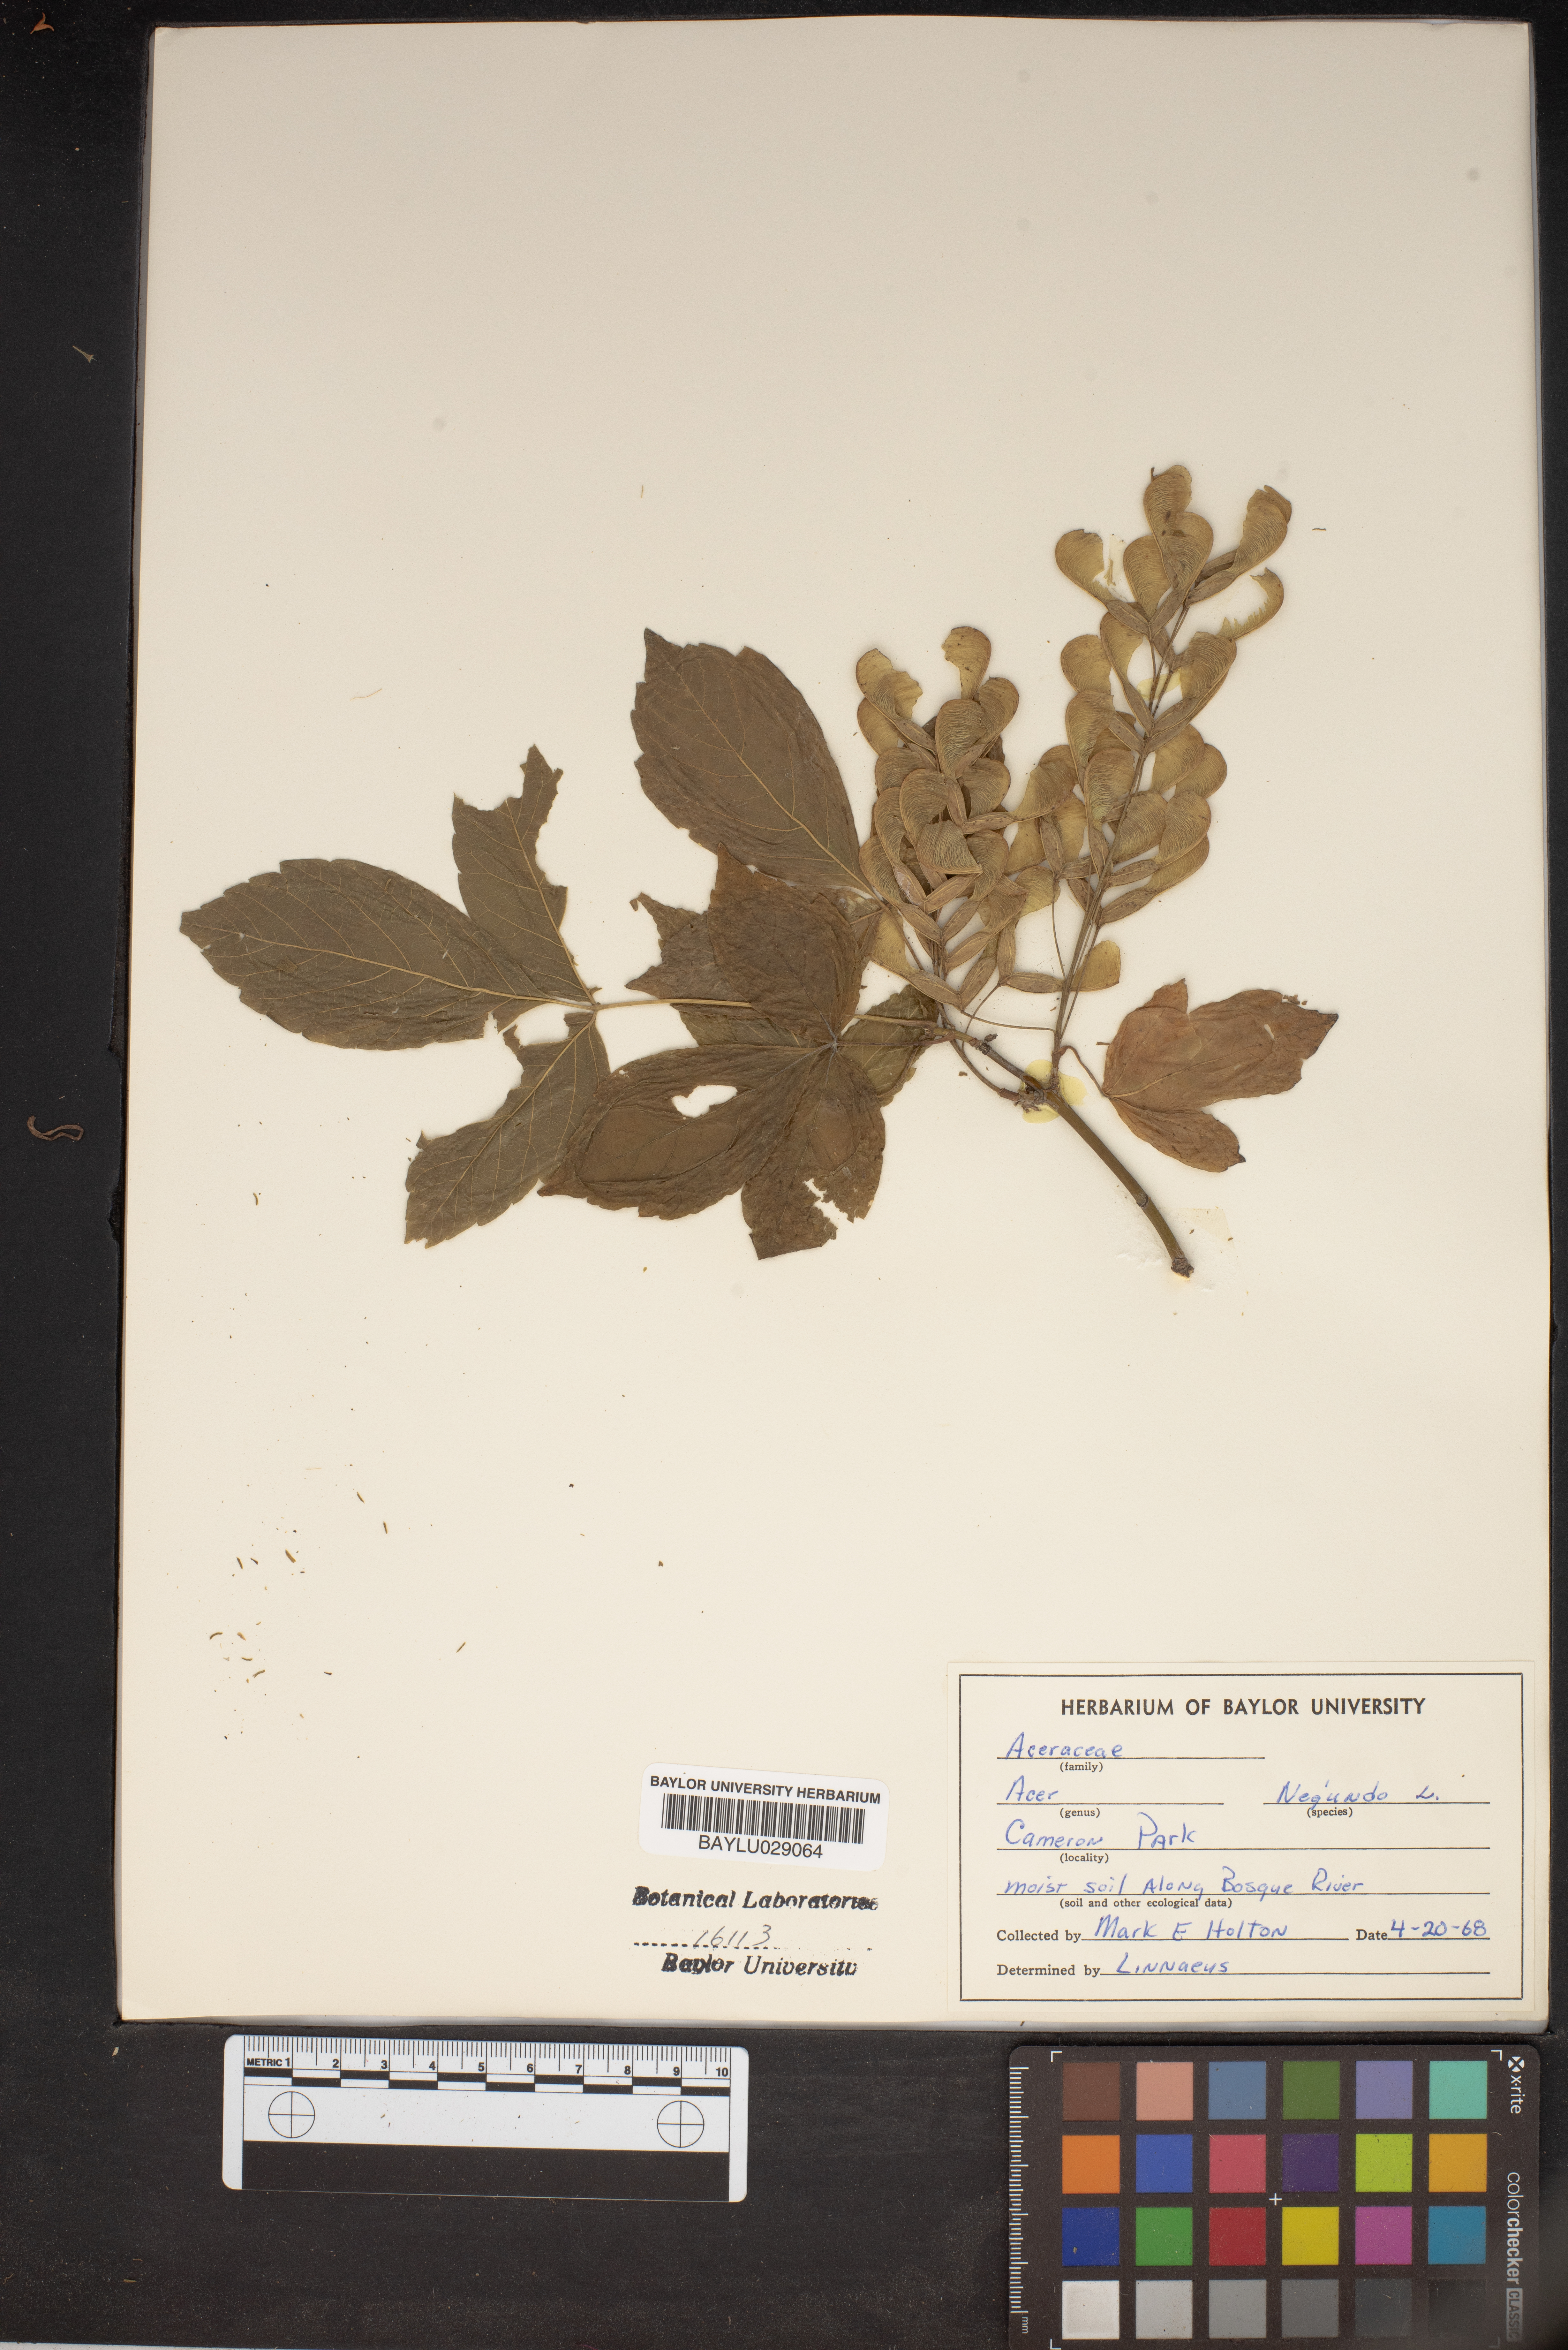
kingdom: Plantae
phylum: Tracheophyta
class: Magnoliopsida
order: Sapindales
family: Sapindaceae
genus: Acer
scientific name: Acer negundo
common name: Ashleaf maple
